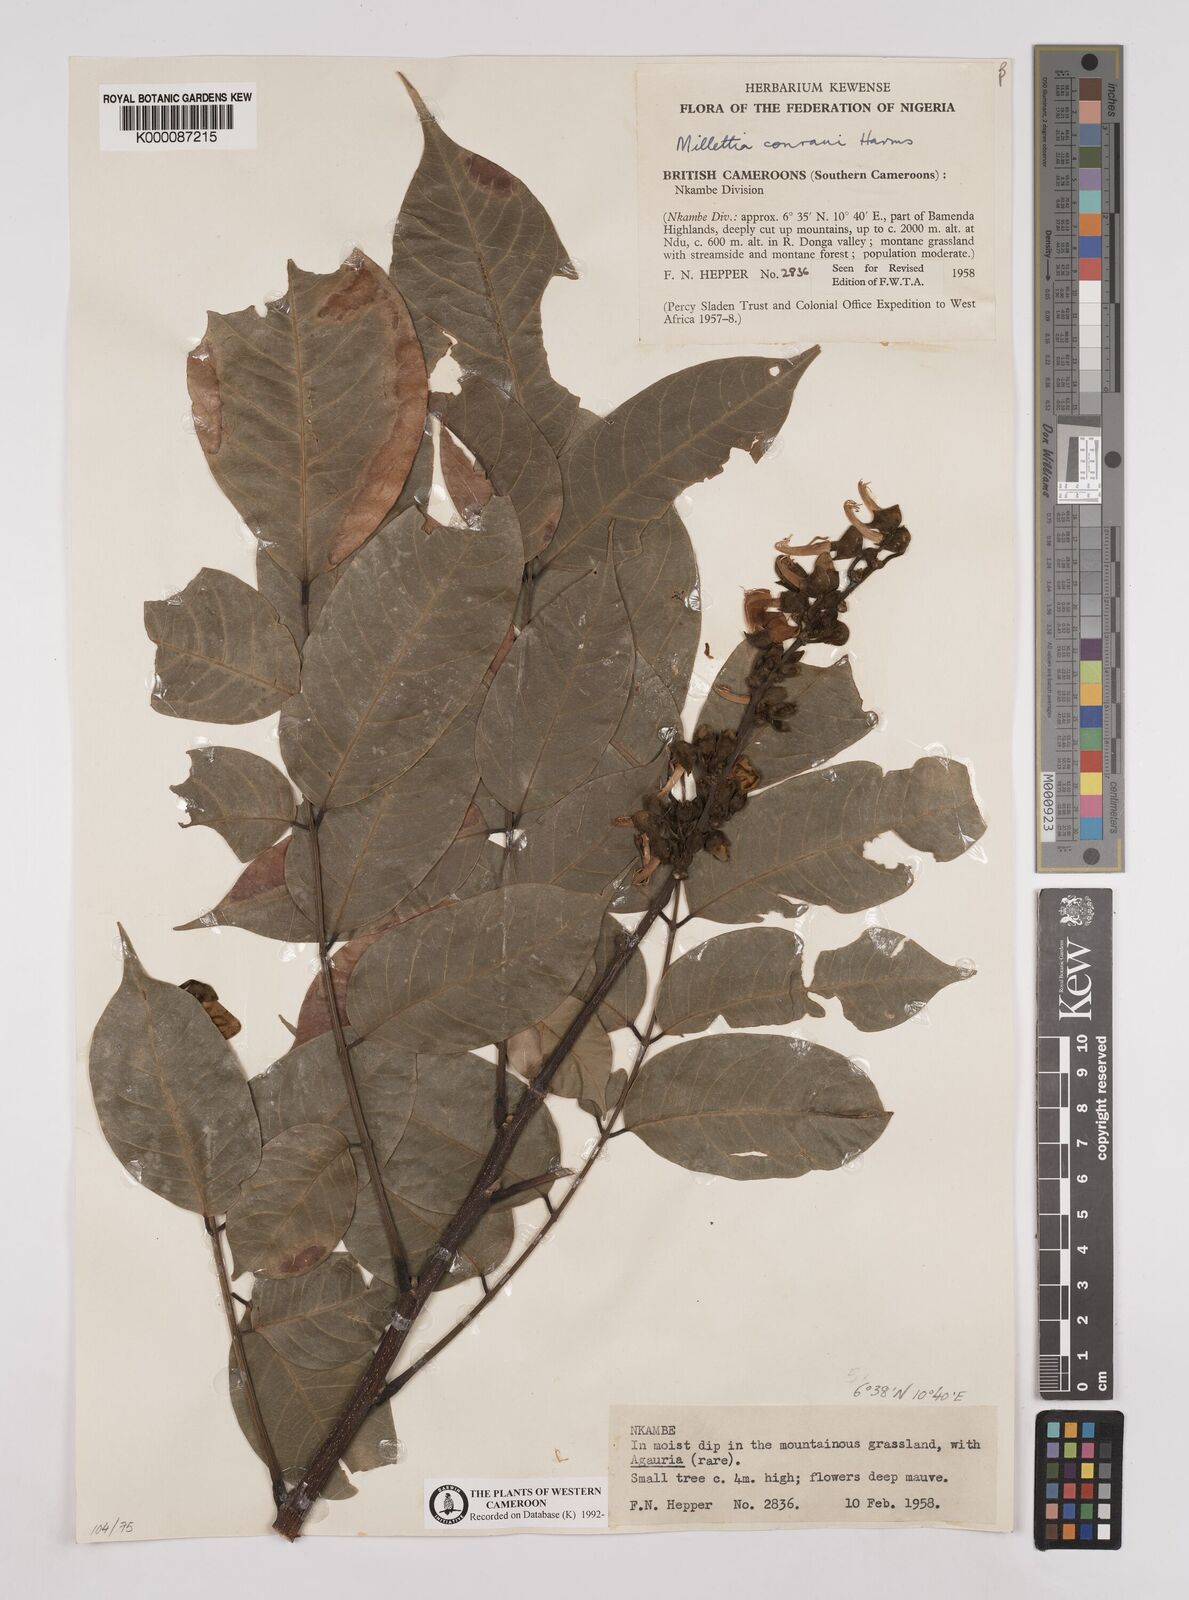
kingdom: Plantae
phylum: Tracheophyta
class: Magnoliopsida
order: Fabales
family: Fabaceae
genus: Millettia
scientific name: Millettia conraui
